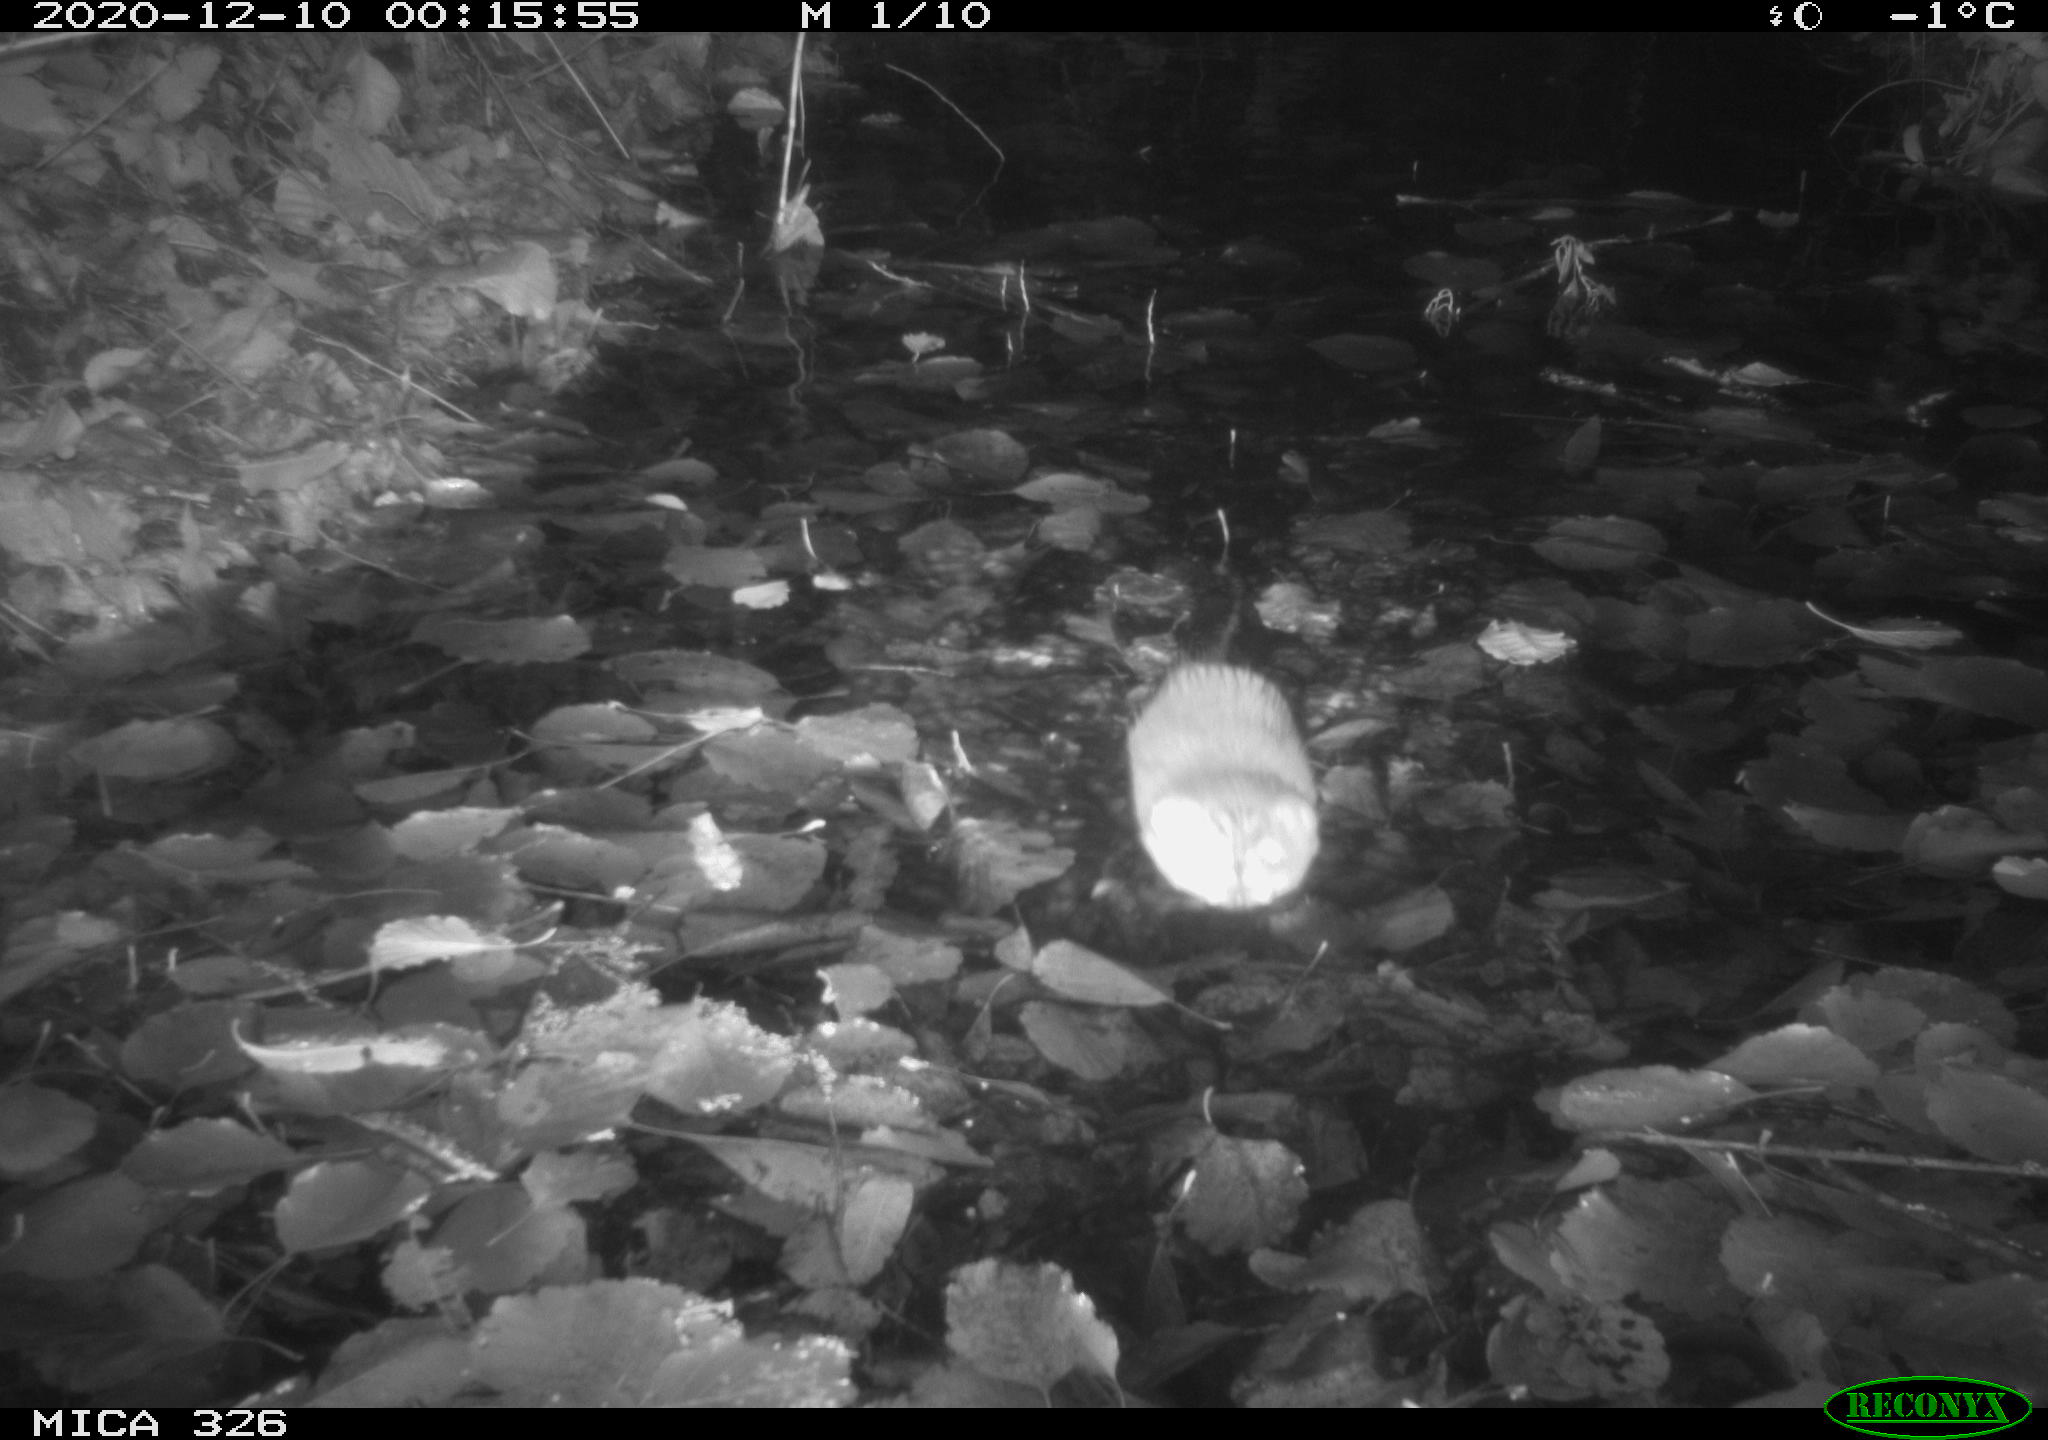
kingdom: Animalia
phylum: Chordata
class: Mammalia
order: Rodentia
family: Cricetidae
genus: Ondatra
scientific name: Ondatra zibethicus
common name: Muskrat
